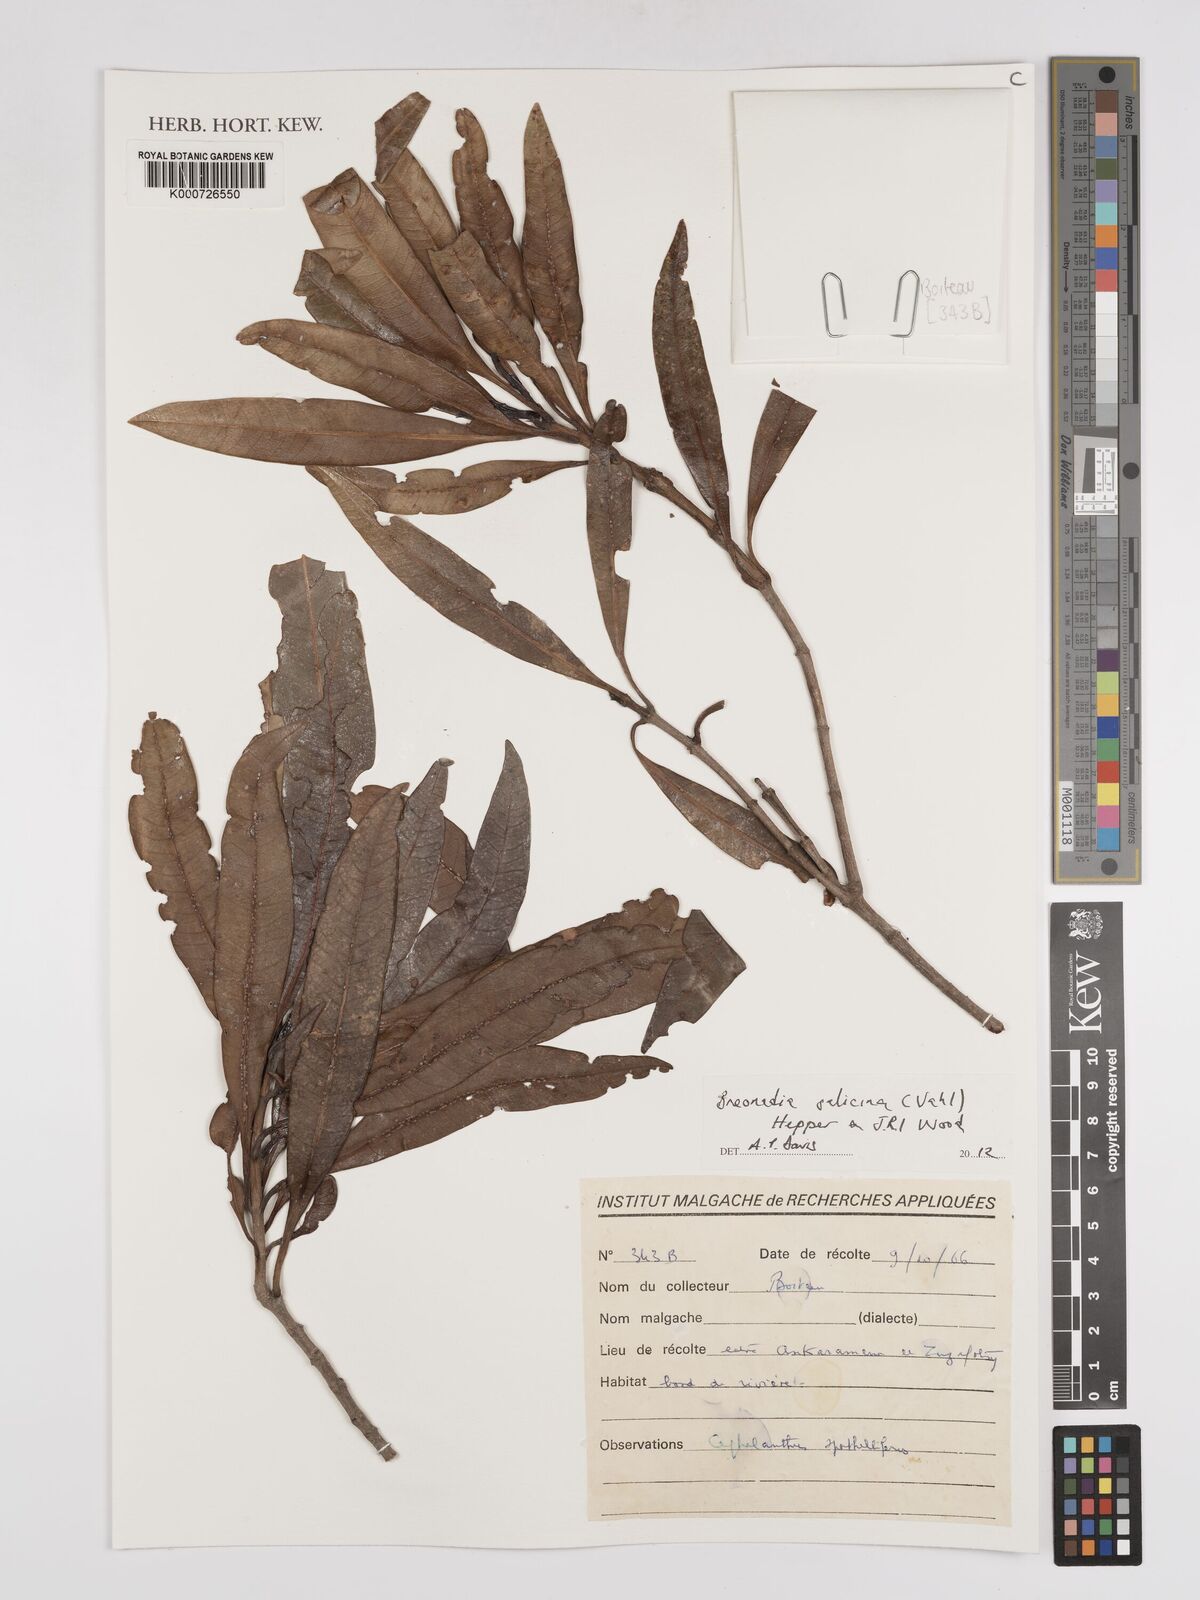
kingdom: Plantae
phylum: Tracheophyta
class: Magnoliopsida
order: Gentianales
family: Rubiaceae
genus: Breonadia
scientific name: Breonadia salicina
